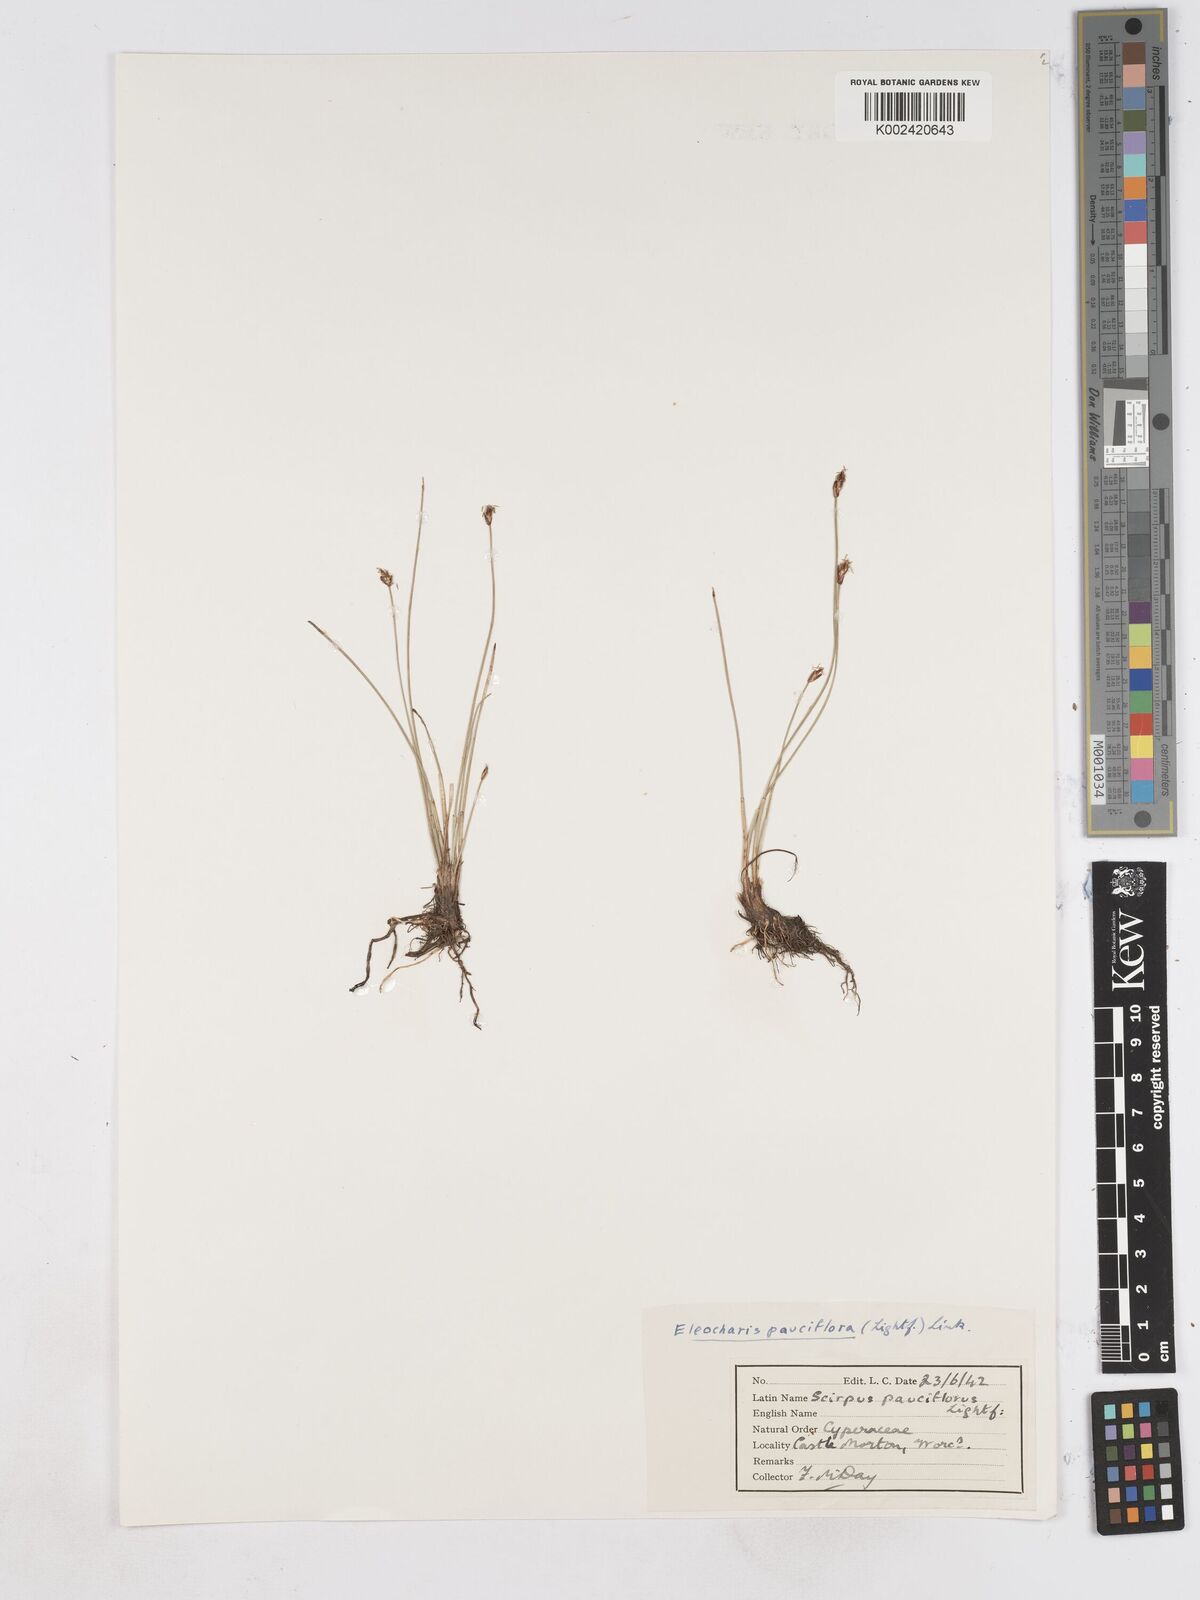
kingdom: Plantae
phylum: Tracheophyta
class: Liliopsida
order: Poales
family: Cyperaceae
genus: Eleocharis
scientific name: Eleocharis quinqueflora
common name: Few-flowered spike-rush
